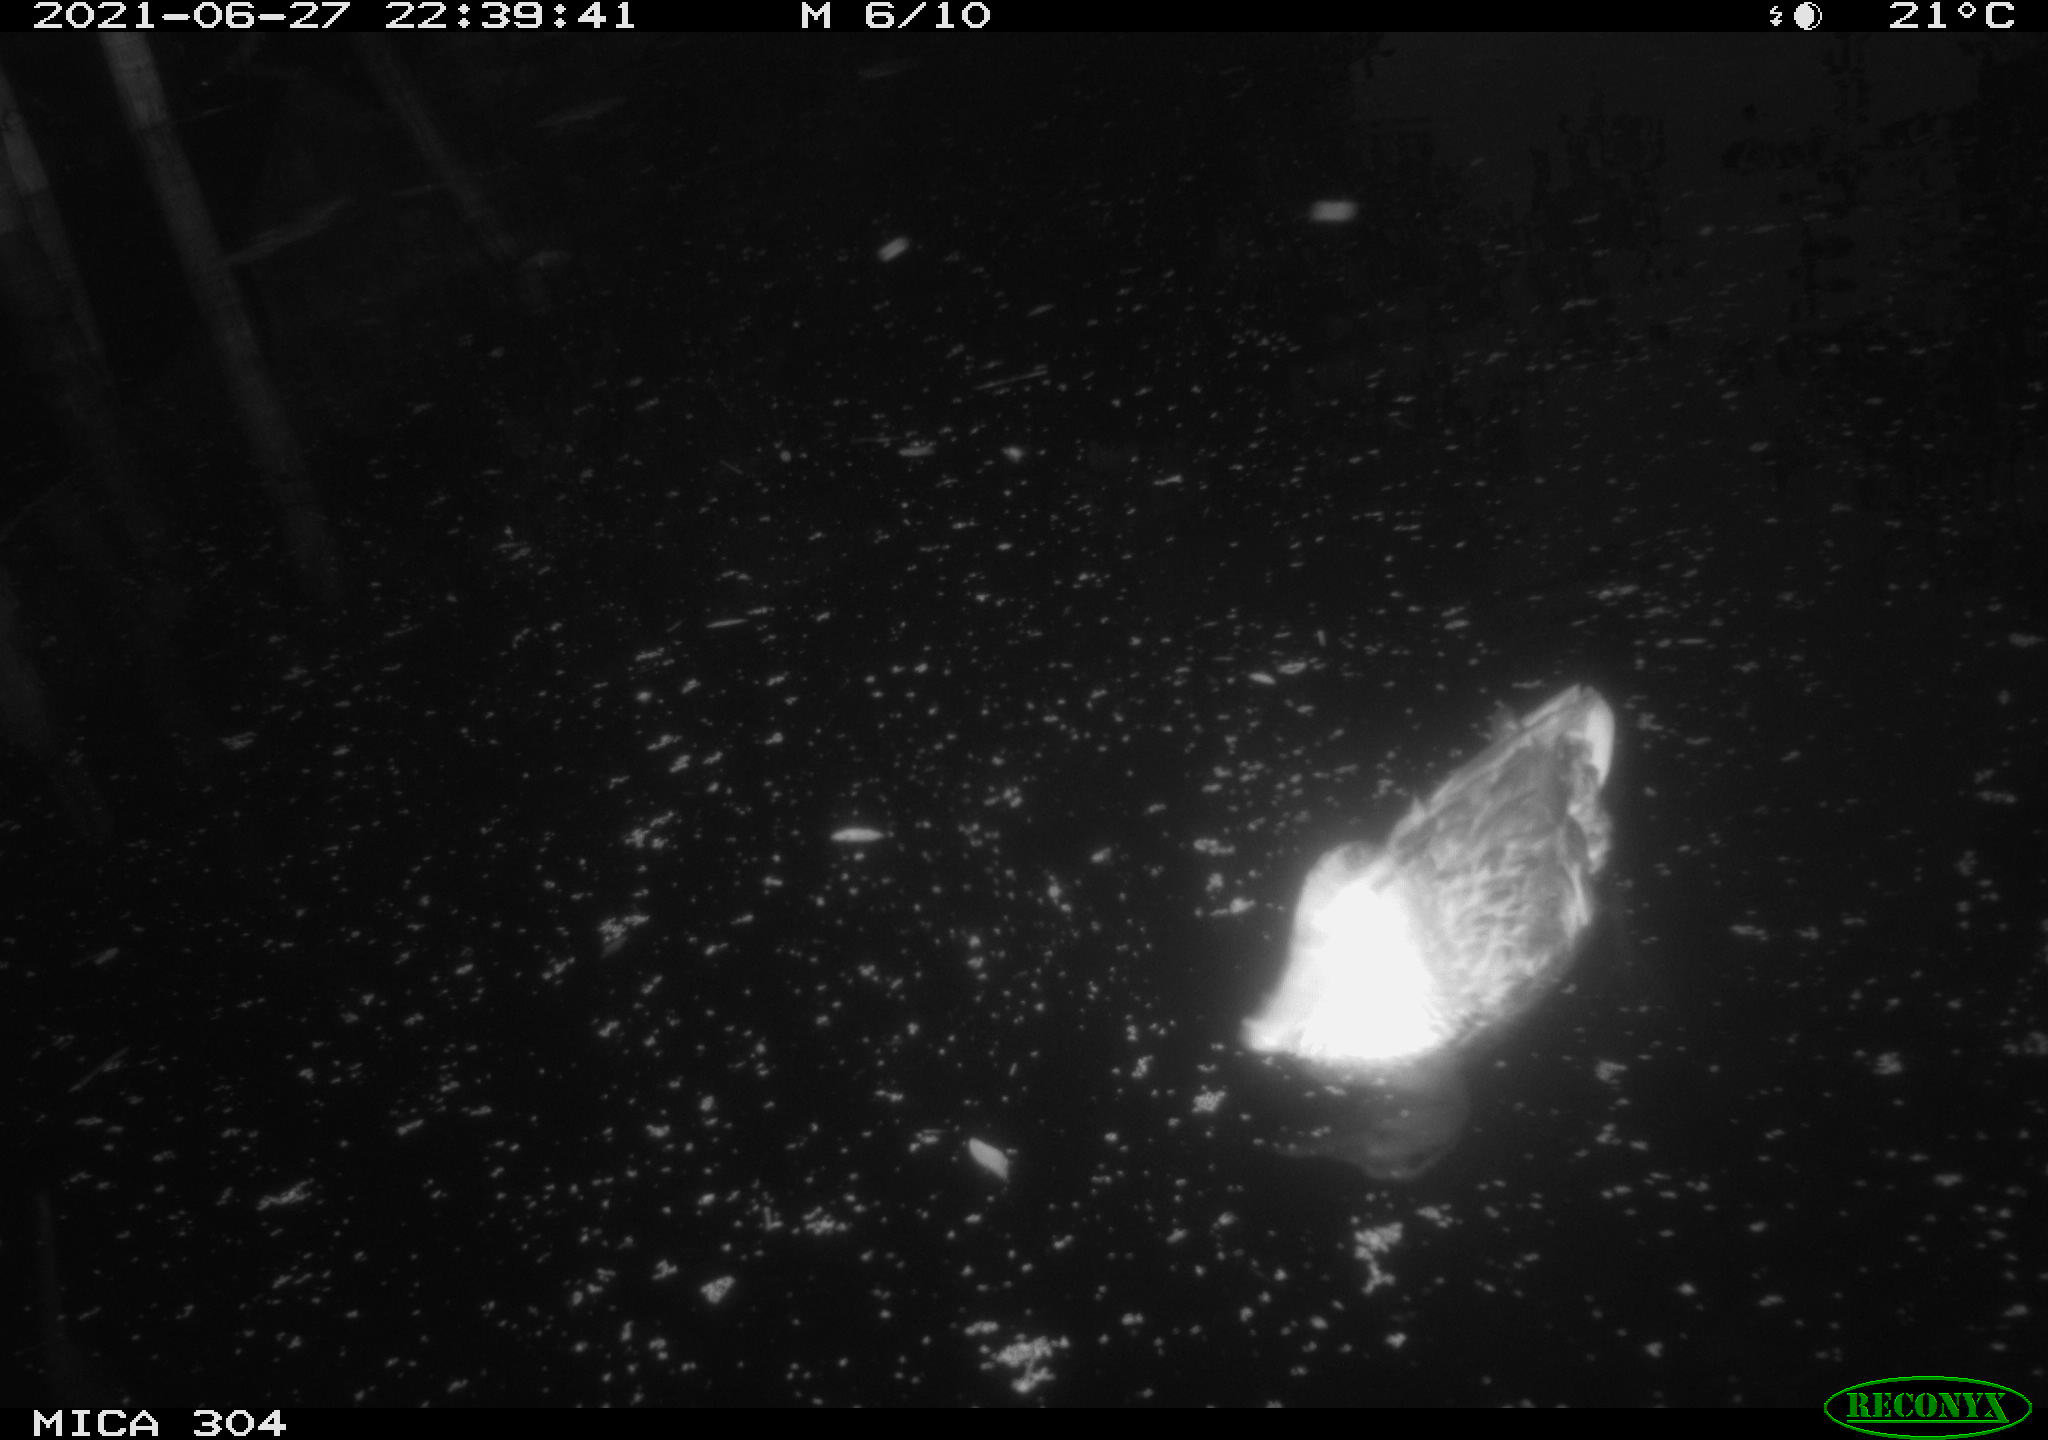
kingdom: Animalia
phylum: Chordata
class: Aves
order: Anseriformes
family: Anatidae
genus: Anas
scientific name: Anas platyrhynchos
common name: Mallard
